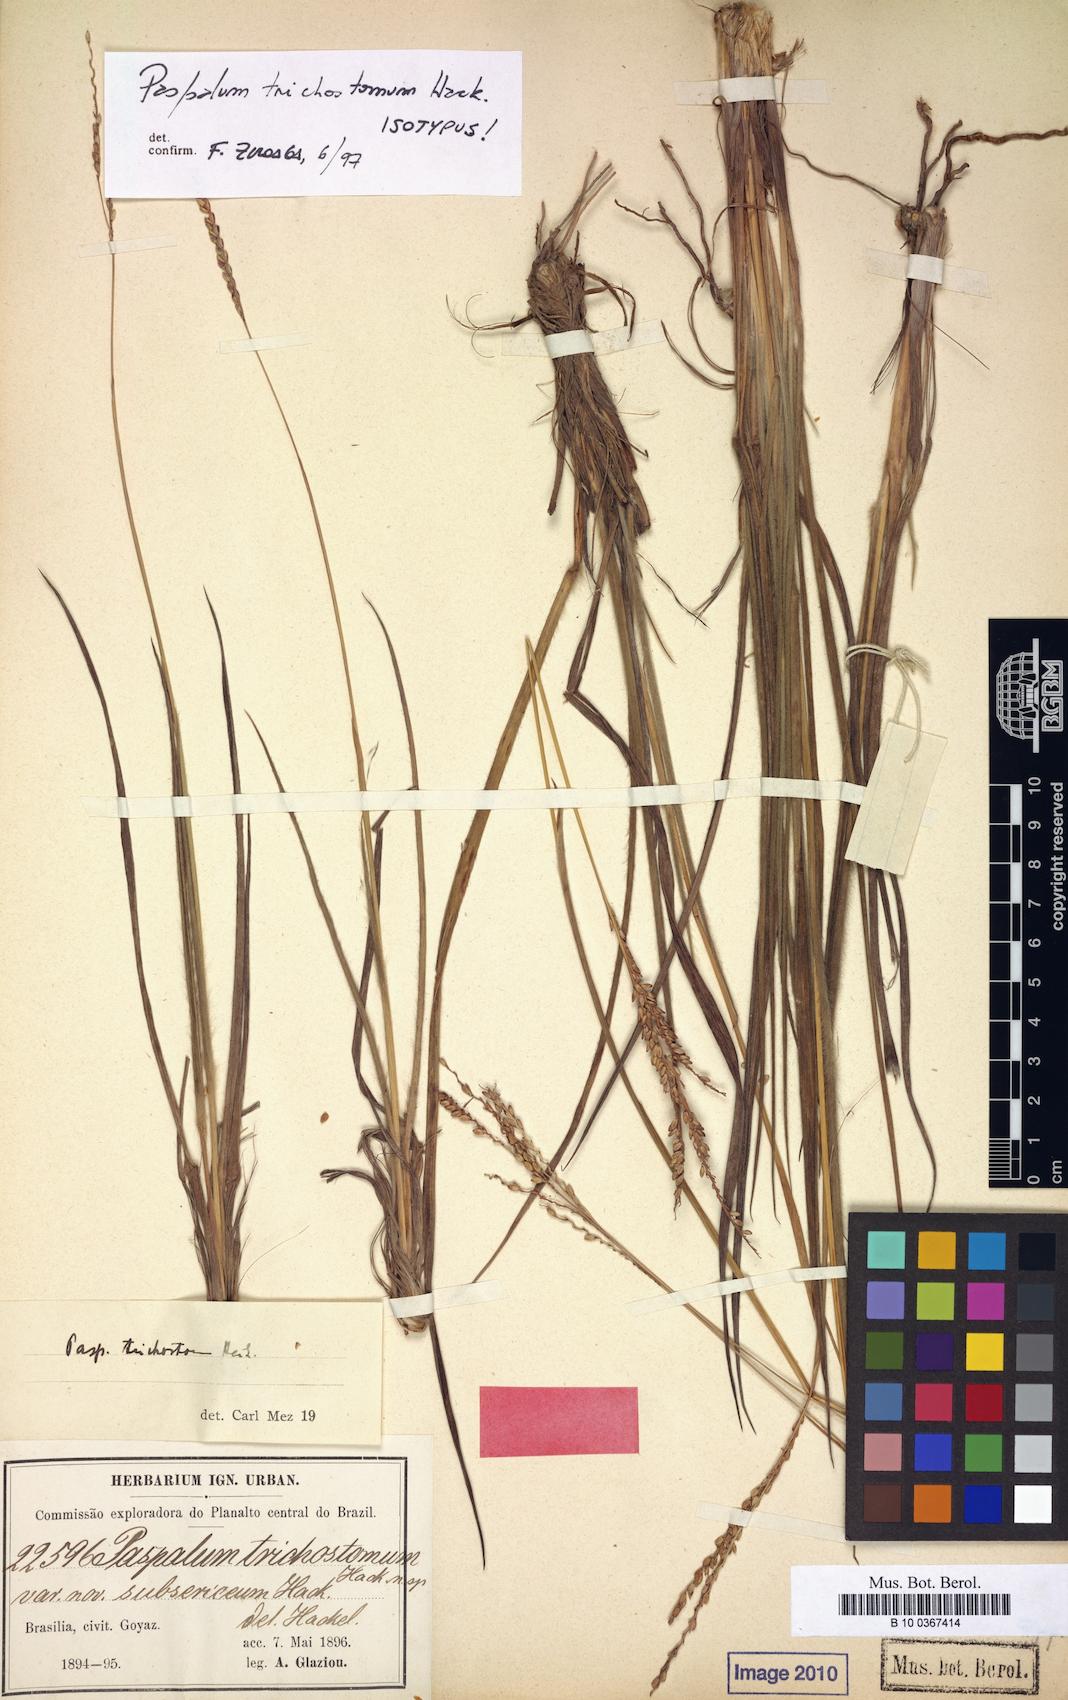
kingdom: Plantae
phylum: Tracheophyta
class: Liliopsida
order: Poales
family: Poaceae
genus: Paspalum
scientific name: Paspalum trichostomum
